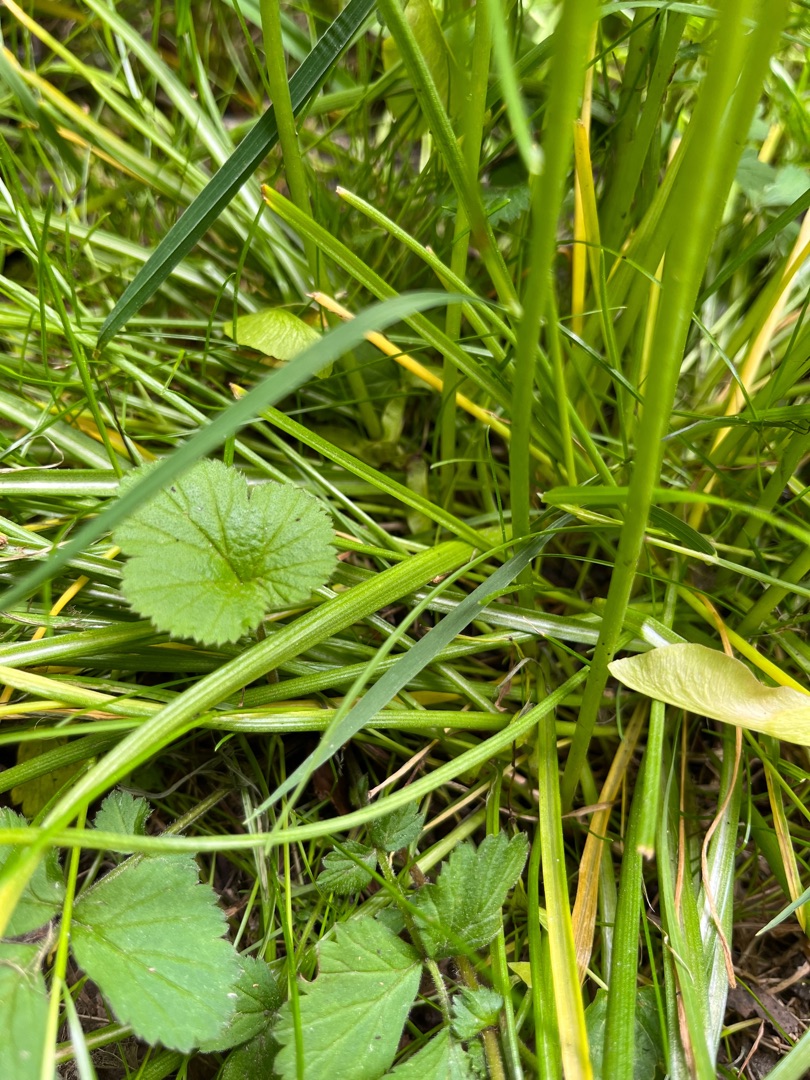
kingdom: Plantae
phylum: Tracheophyta
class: Liliopsida
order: Asparagales
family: Asparagaceae
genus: Ornithogalum
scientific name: Ornithogalum umbellatum
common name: Kost-fuglemælk
